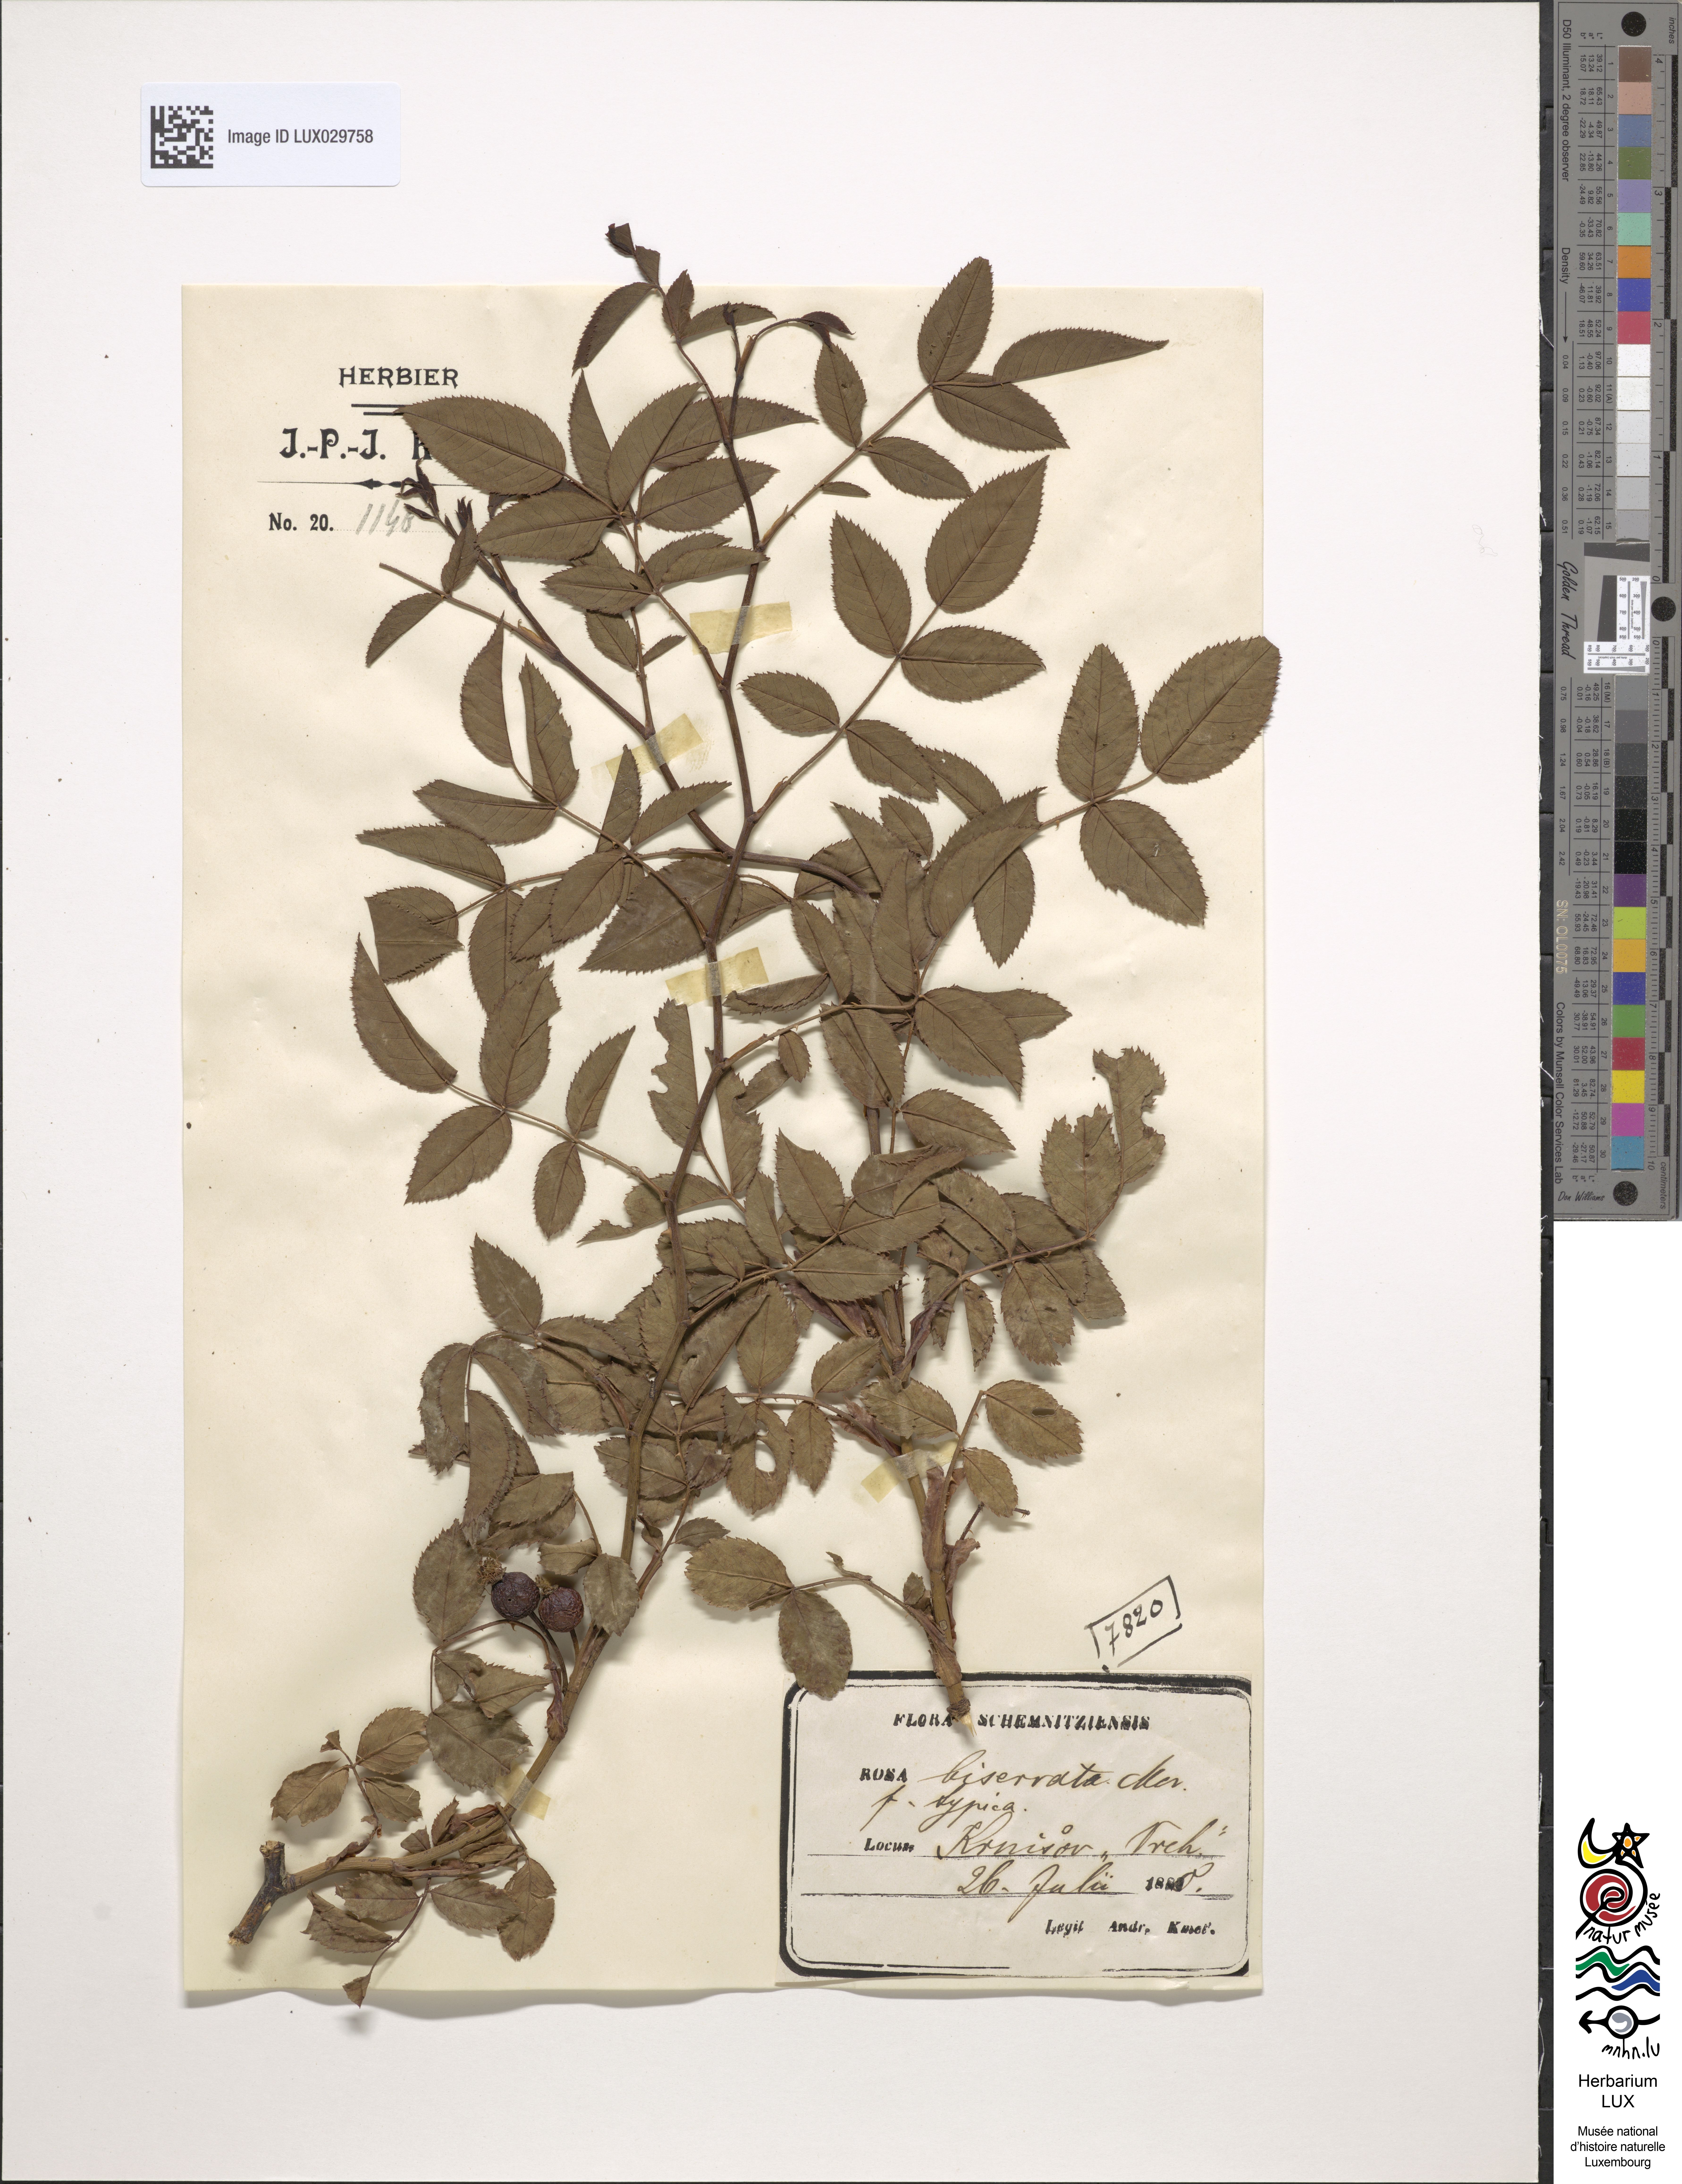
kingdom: Plantae
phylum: Tracheophyta
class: Magnoliopsida
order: Rosales
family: Rosaceae
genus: Rosa
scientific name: Rosa canina
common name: Dog rose
